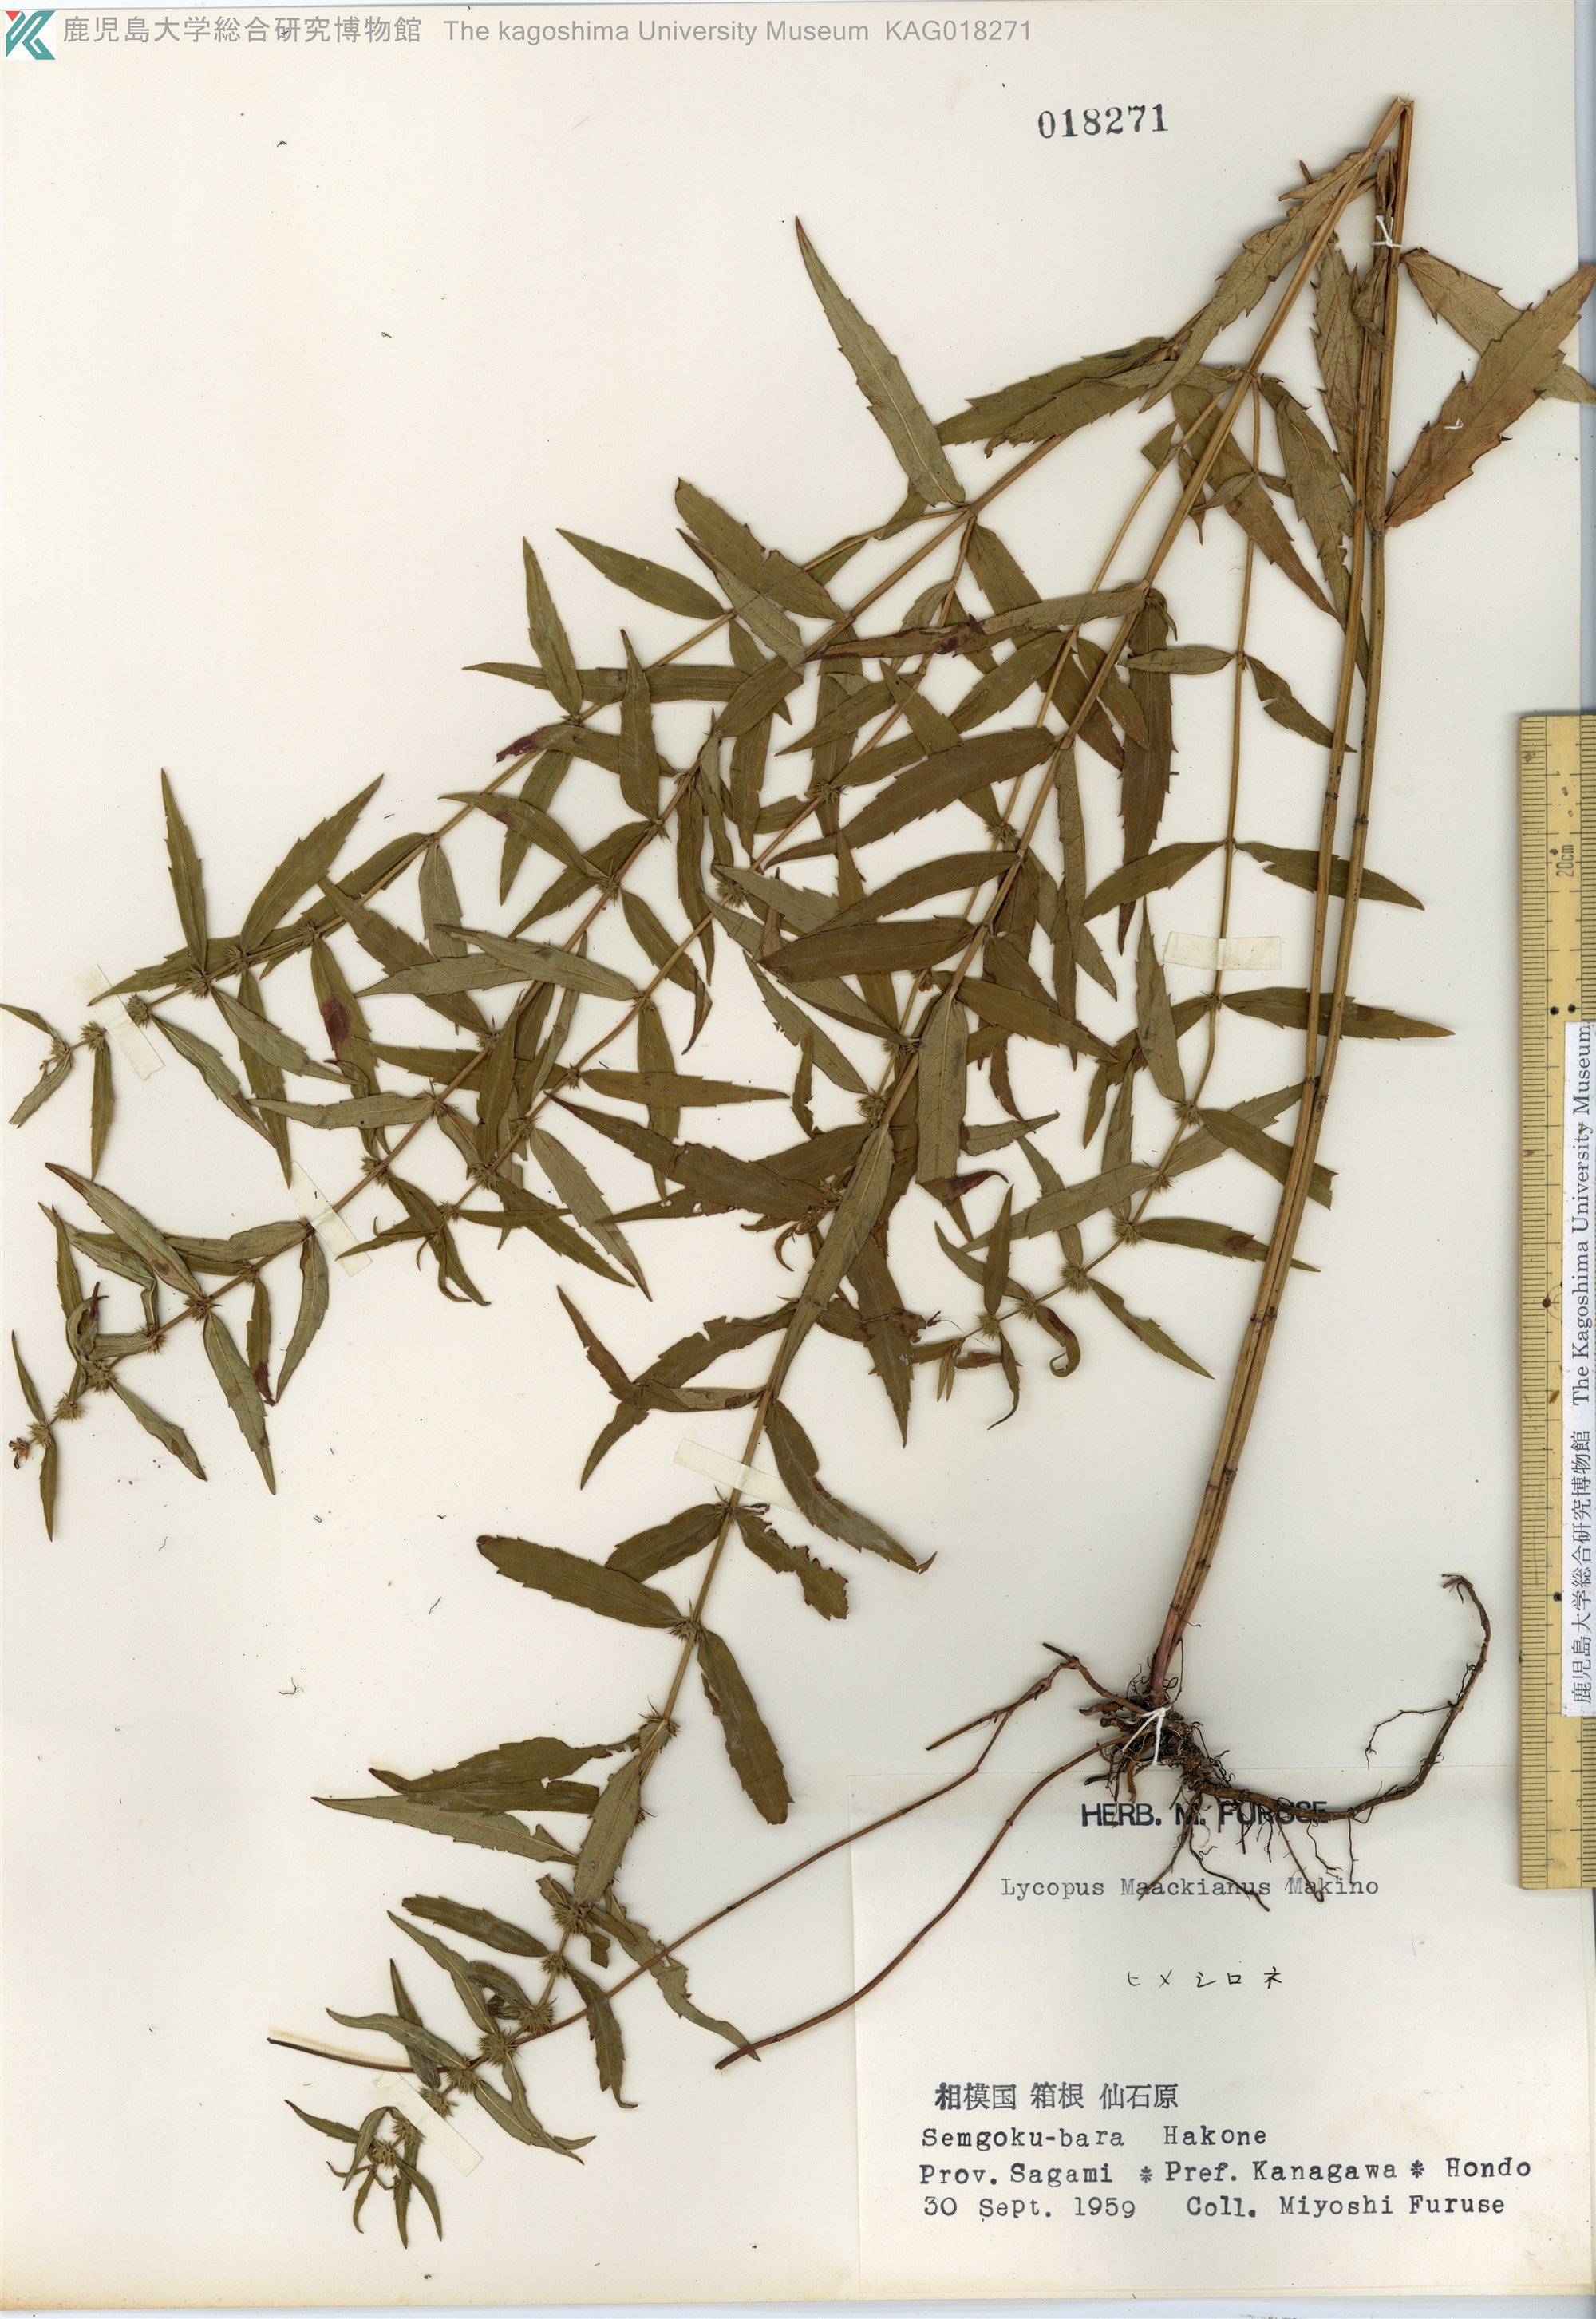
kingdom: Plantae
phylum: Tracheophyta
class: Magnoliopsida
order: Lamiales
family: Lamiaceae
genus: Lycopus
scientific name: Lycopus lucidus
